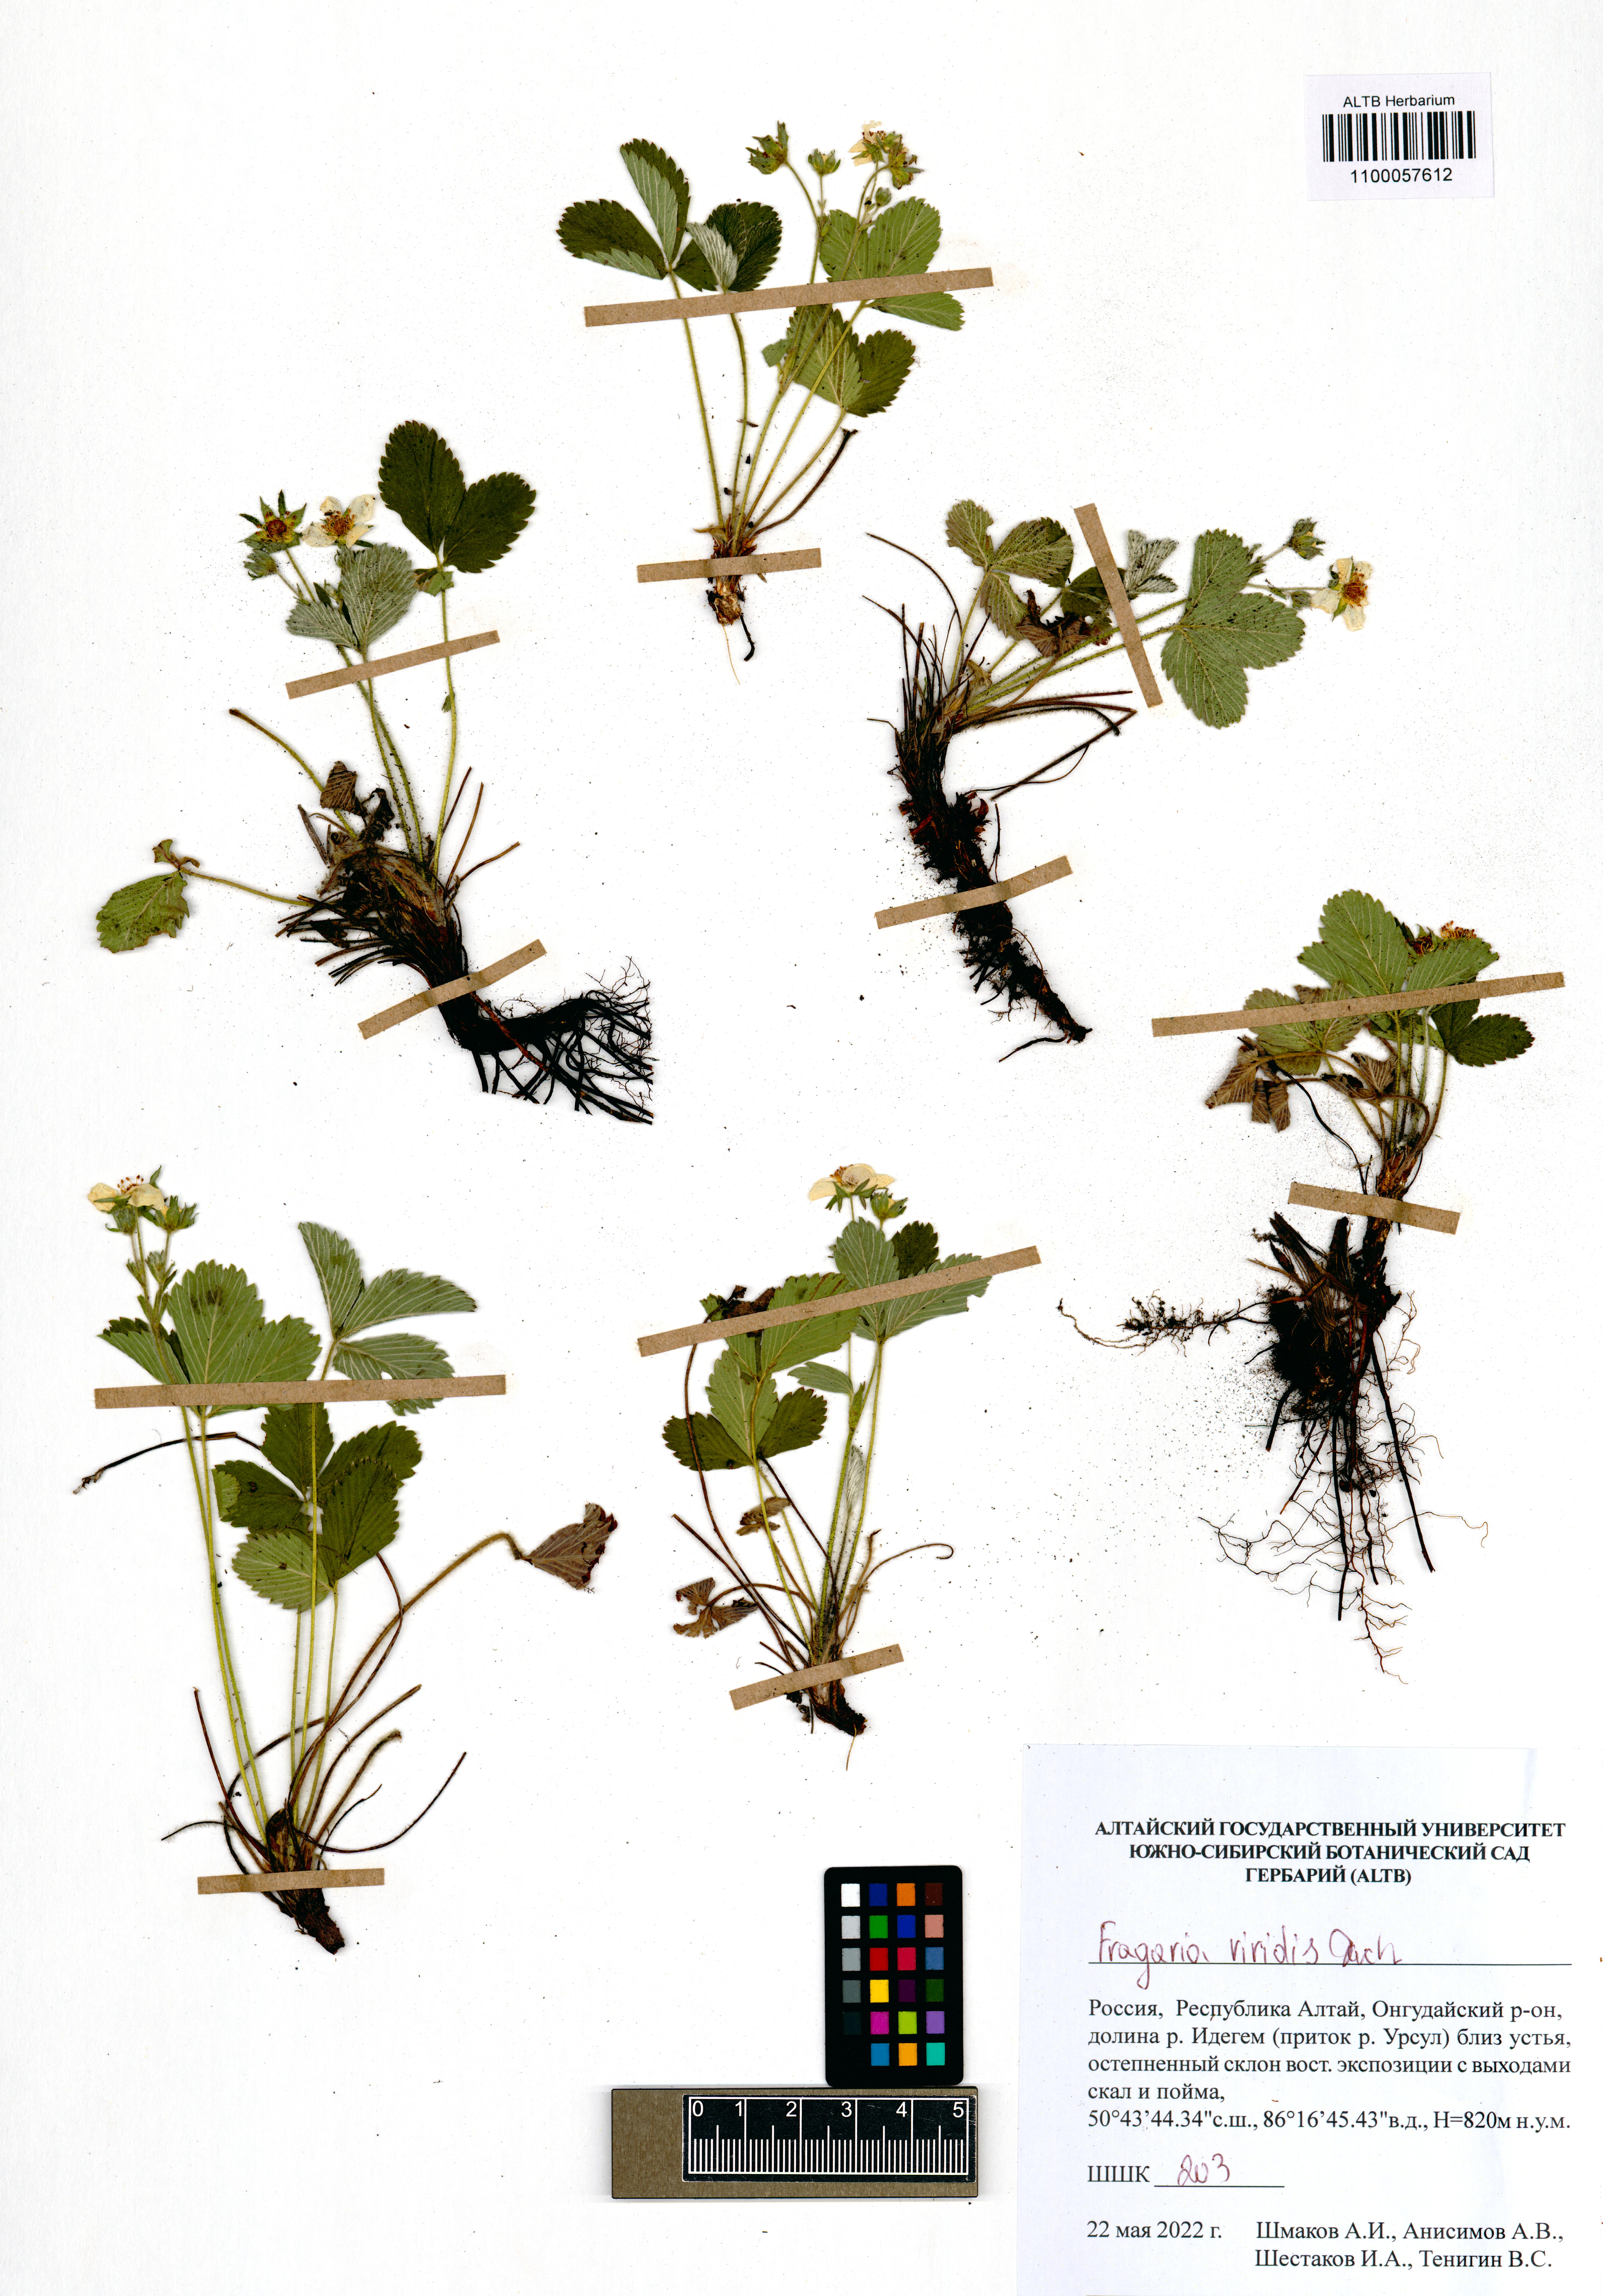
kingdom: Plantae
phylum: Tracheophyta
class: Magnoliopsida
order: Rosales
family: Rosaceae
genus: Fragaria
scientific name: Fragaria viridis
